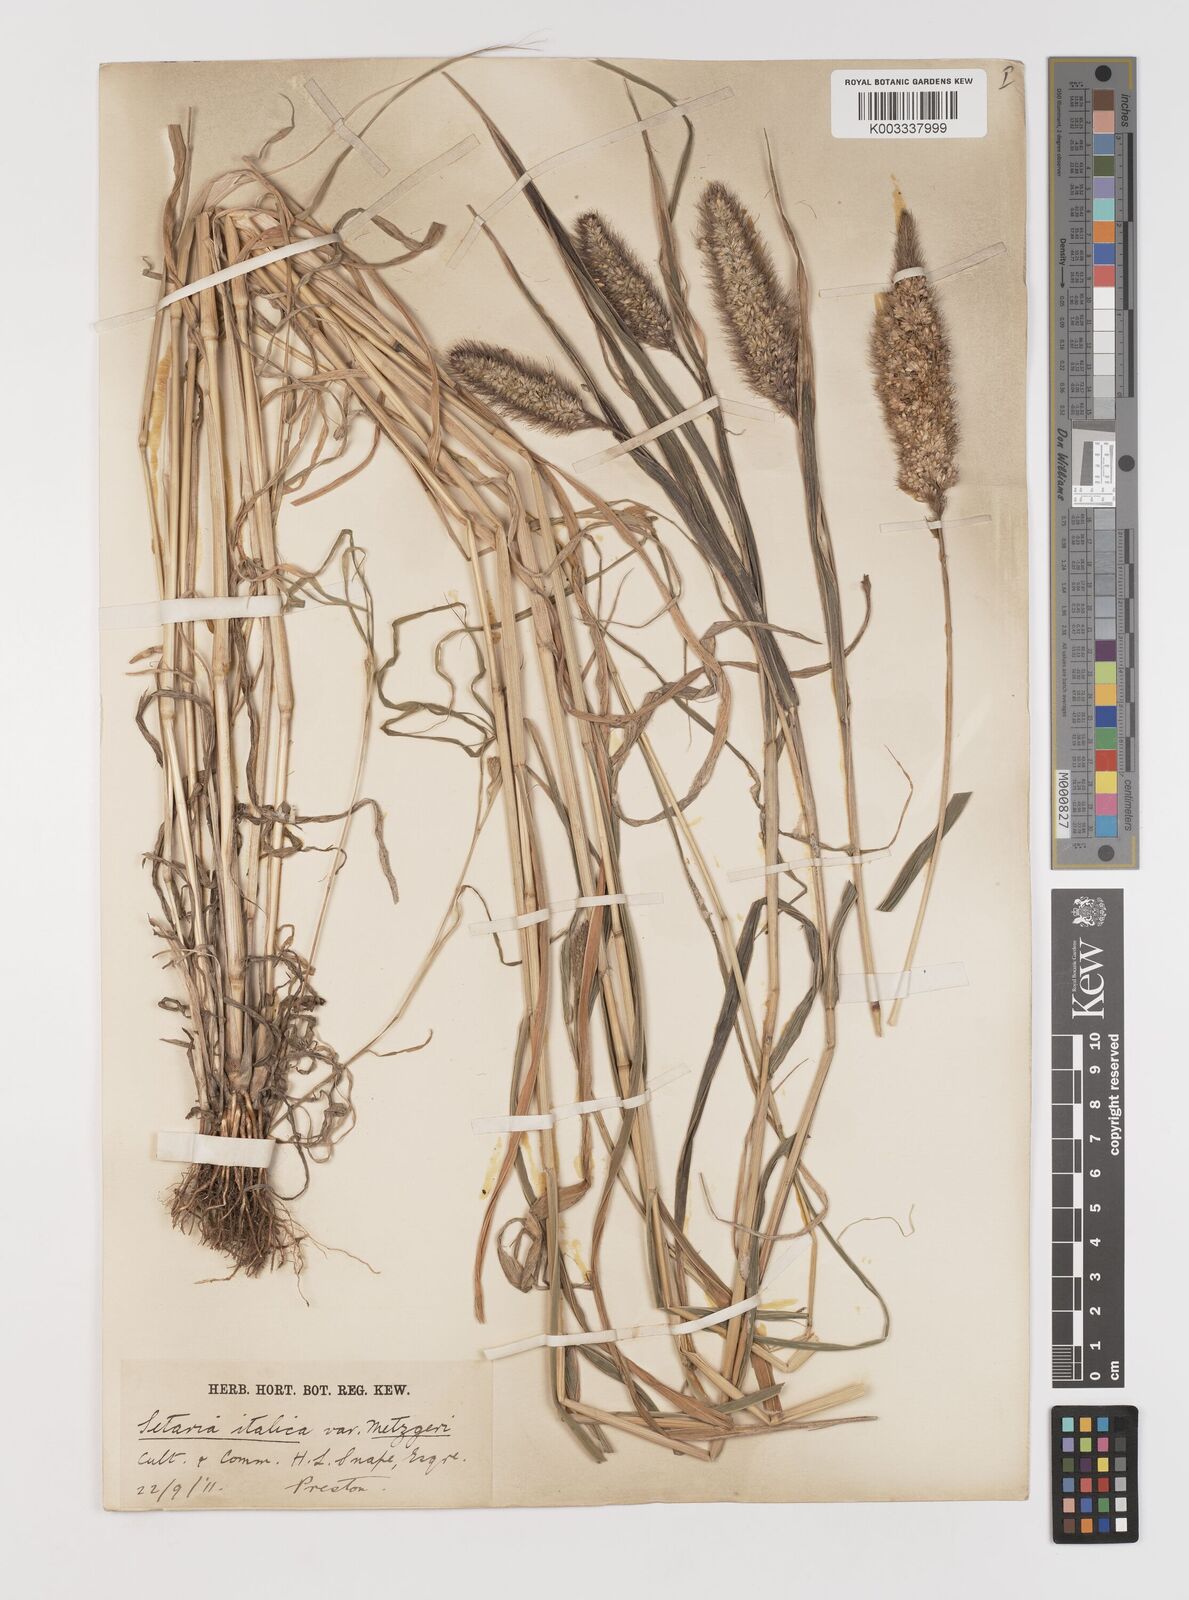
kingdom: Plantae
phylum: Tracheophyta
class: Liliopsida
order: Poales
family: Poaceae
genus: Setaria
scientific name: Setaria italica
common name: Foxtail bristle-grass
